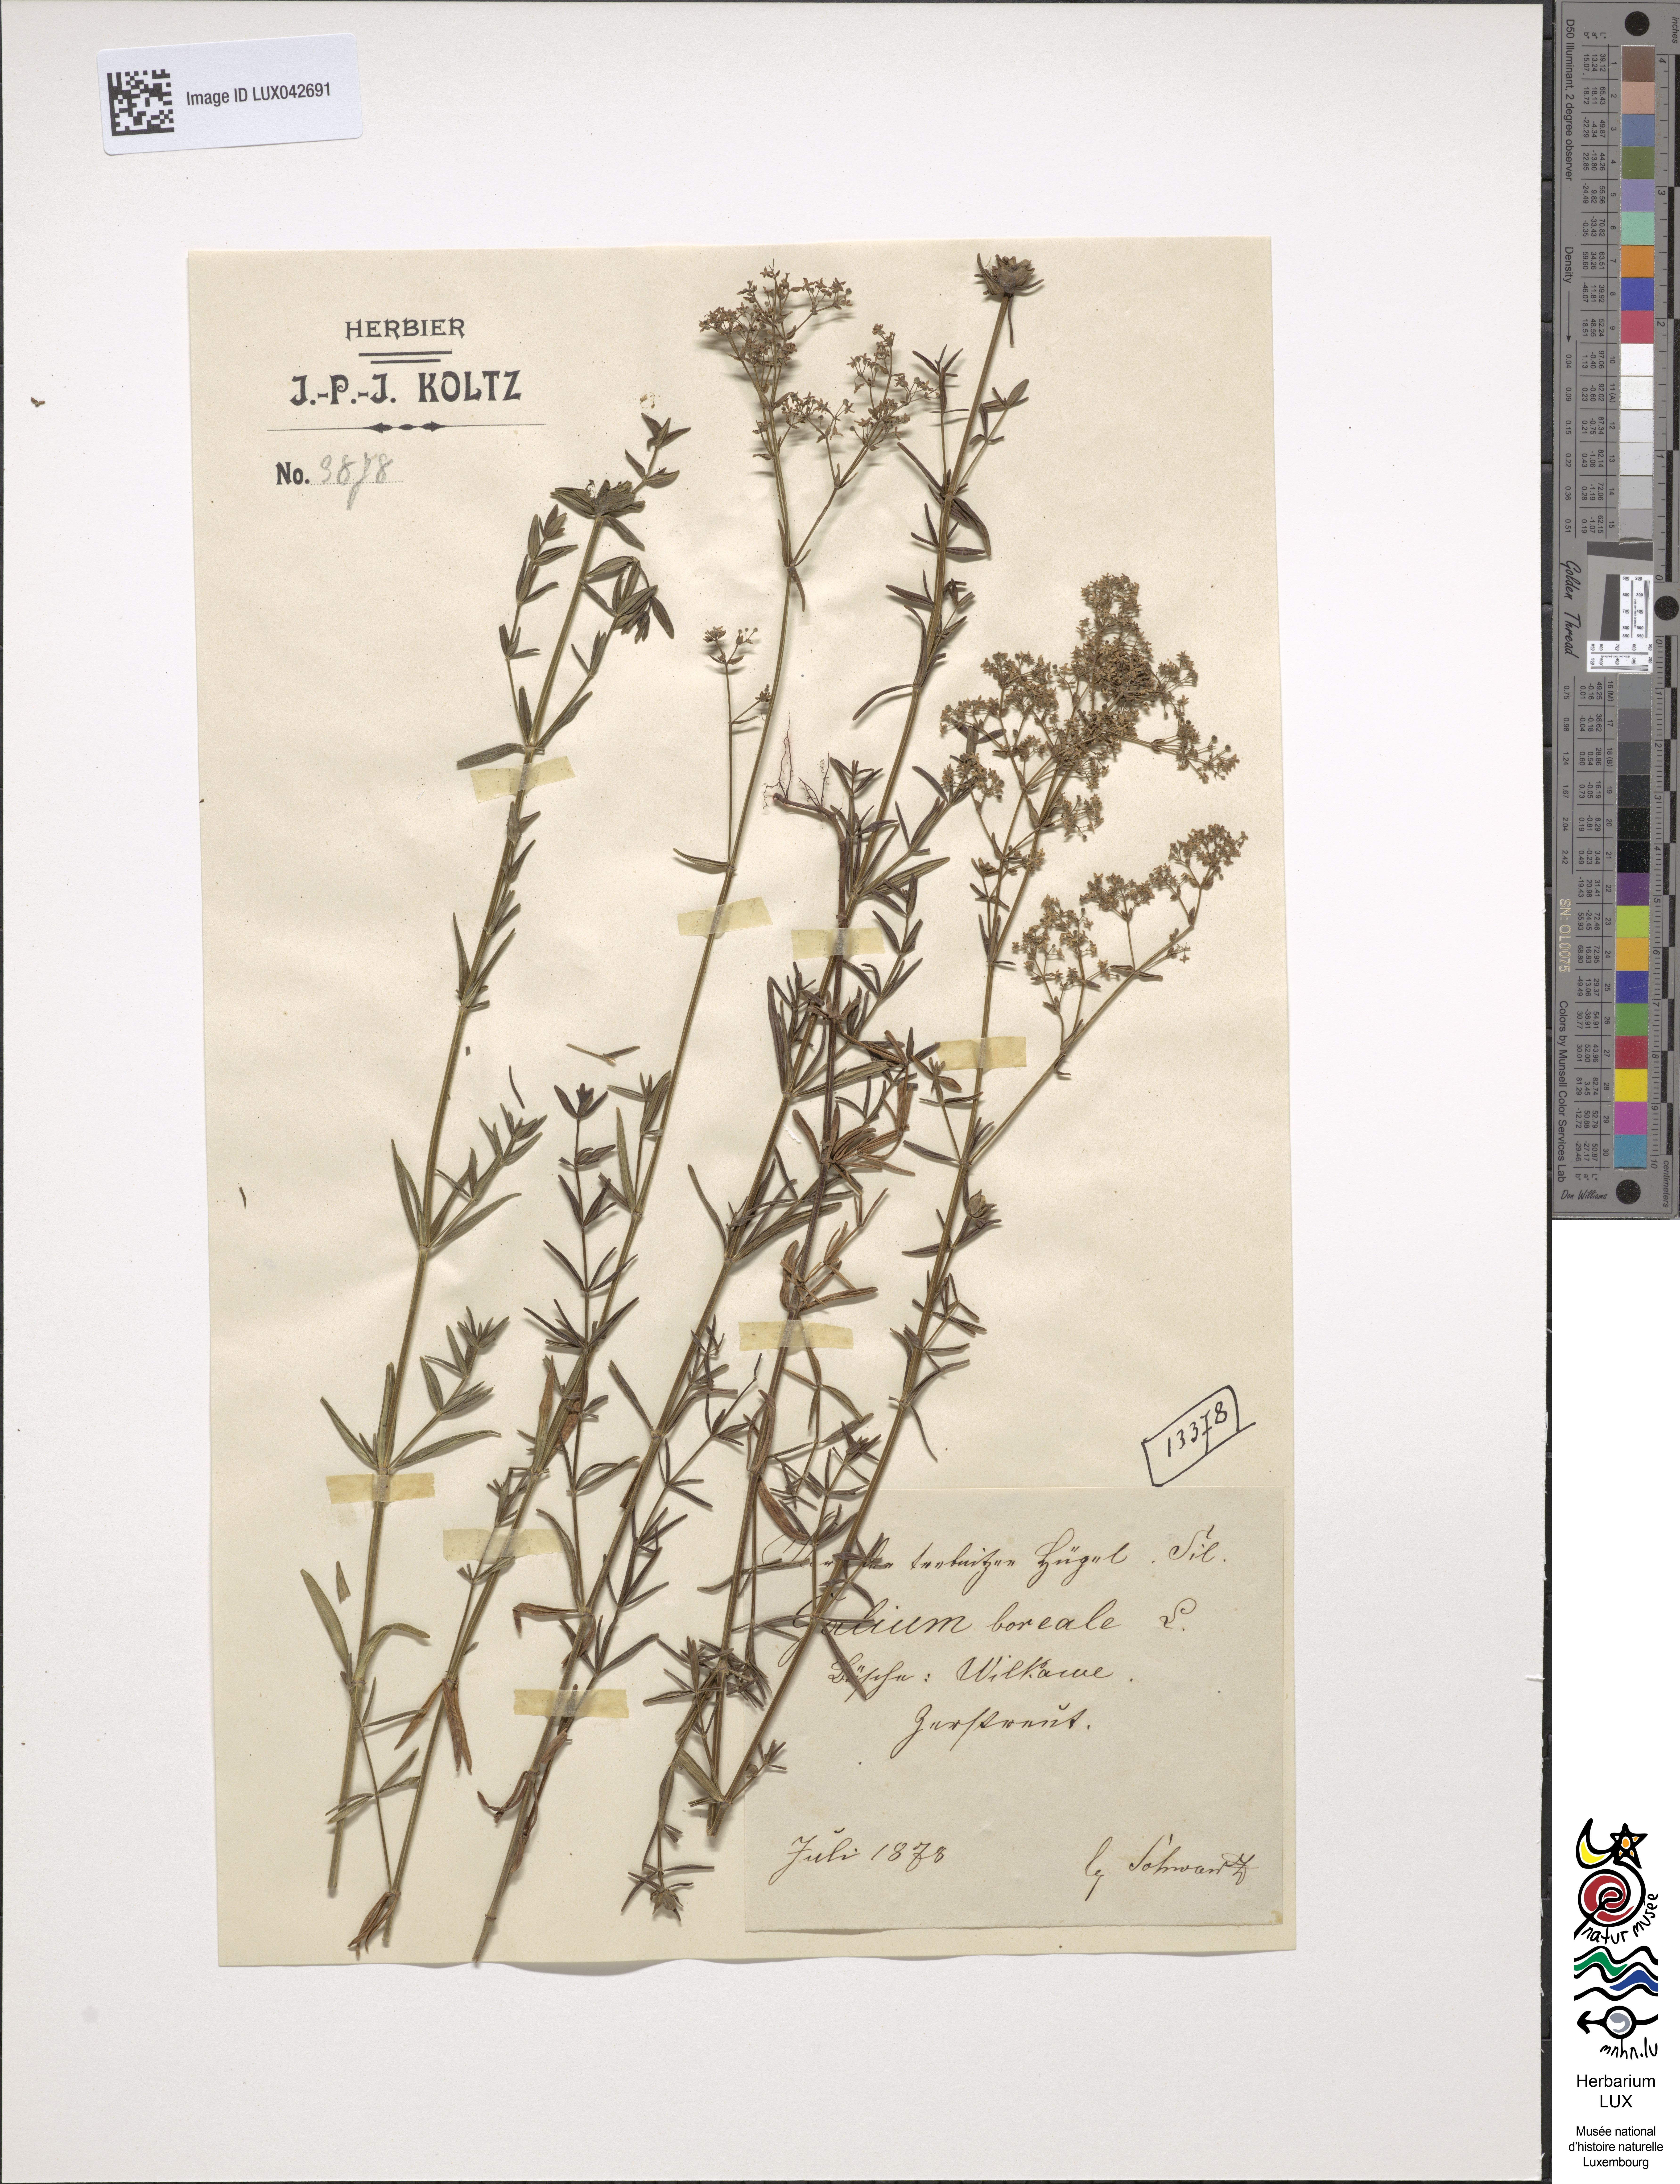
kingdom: Plantae
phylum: Tracheophyta
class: Magnoliopsida
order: Gentianales
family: Rubiaceae
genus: Galium
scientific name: Galium boreale
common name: Northern bedstraw
